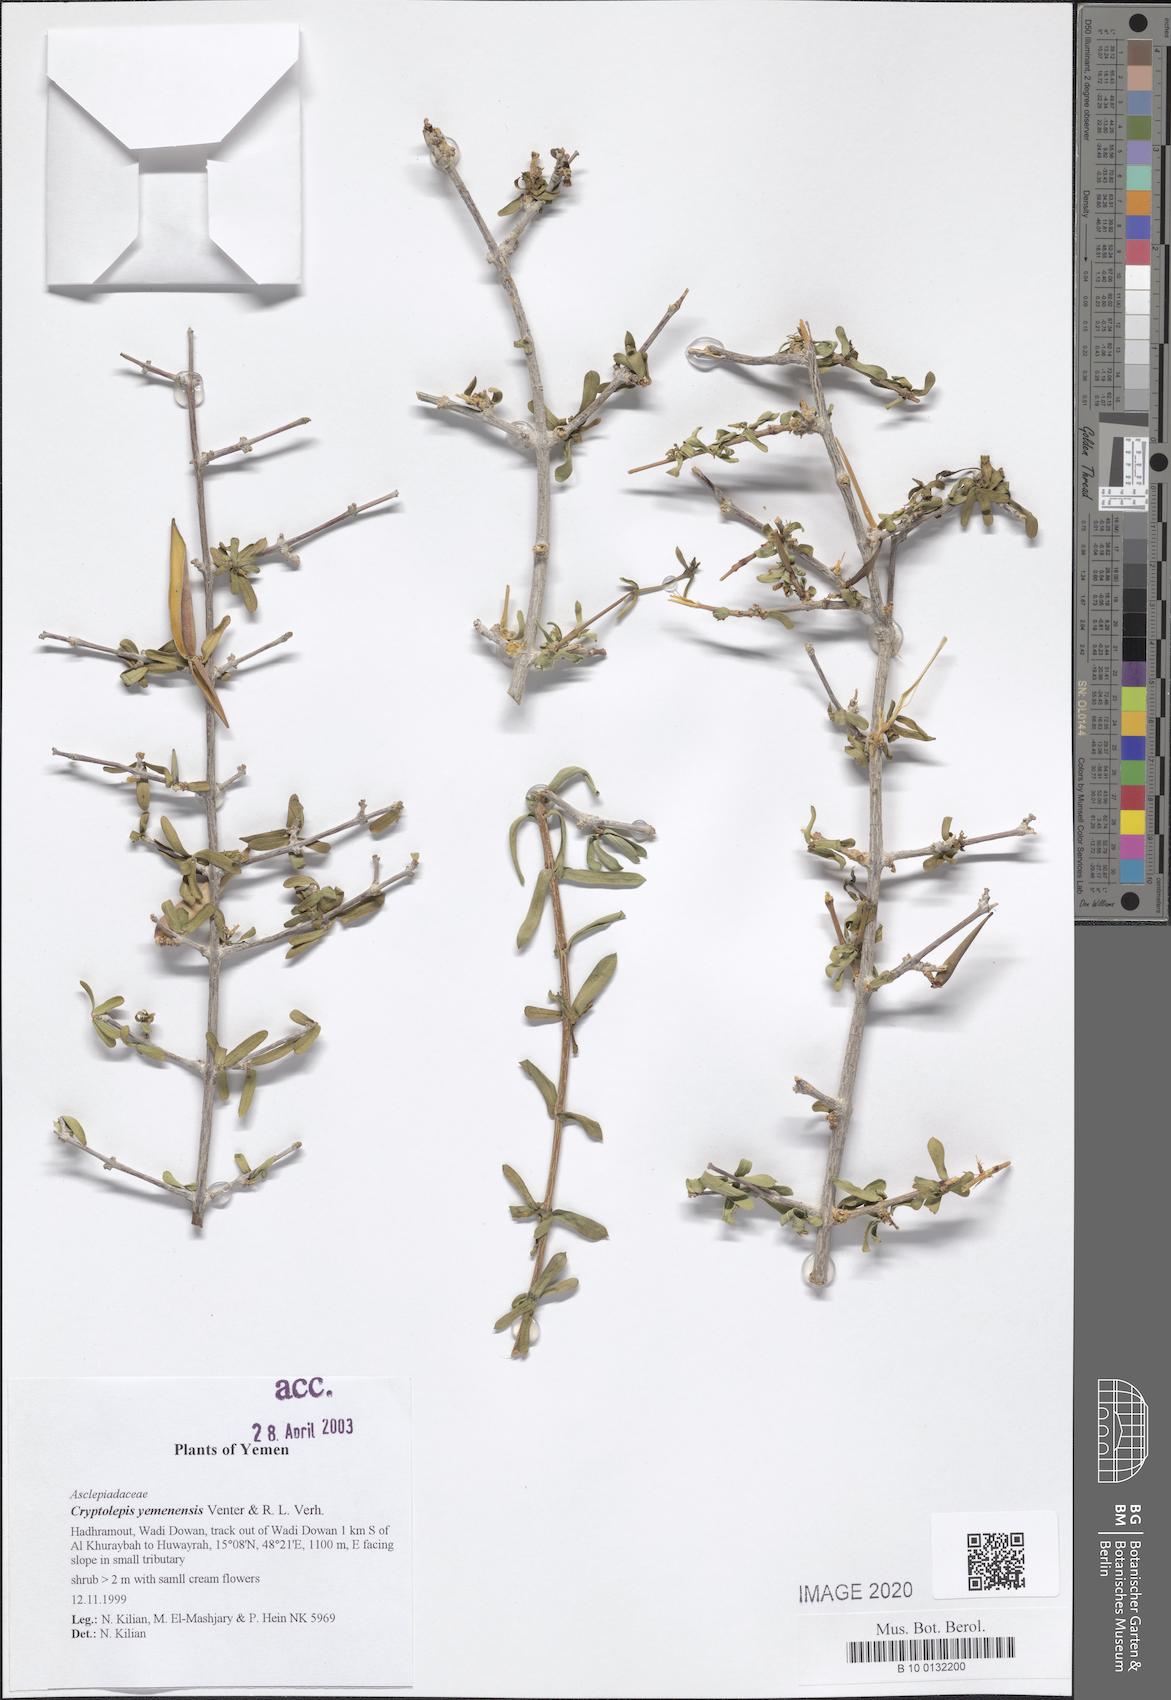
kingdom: Plantae
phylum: Tracheophyta
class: Magnoliopsida
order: Gentianales
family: Apocynaceae
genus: Cryptolepis
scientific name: Cryptolepis yemenensis
